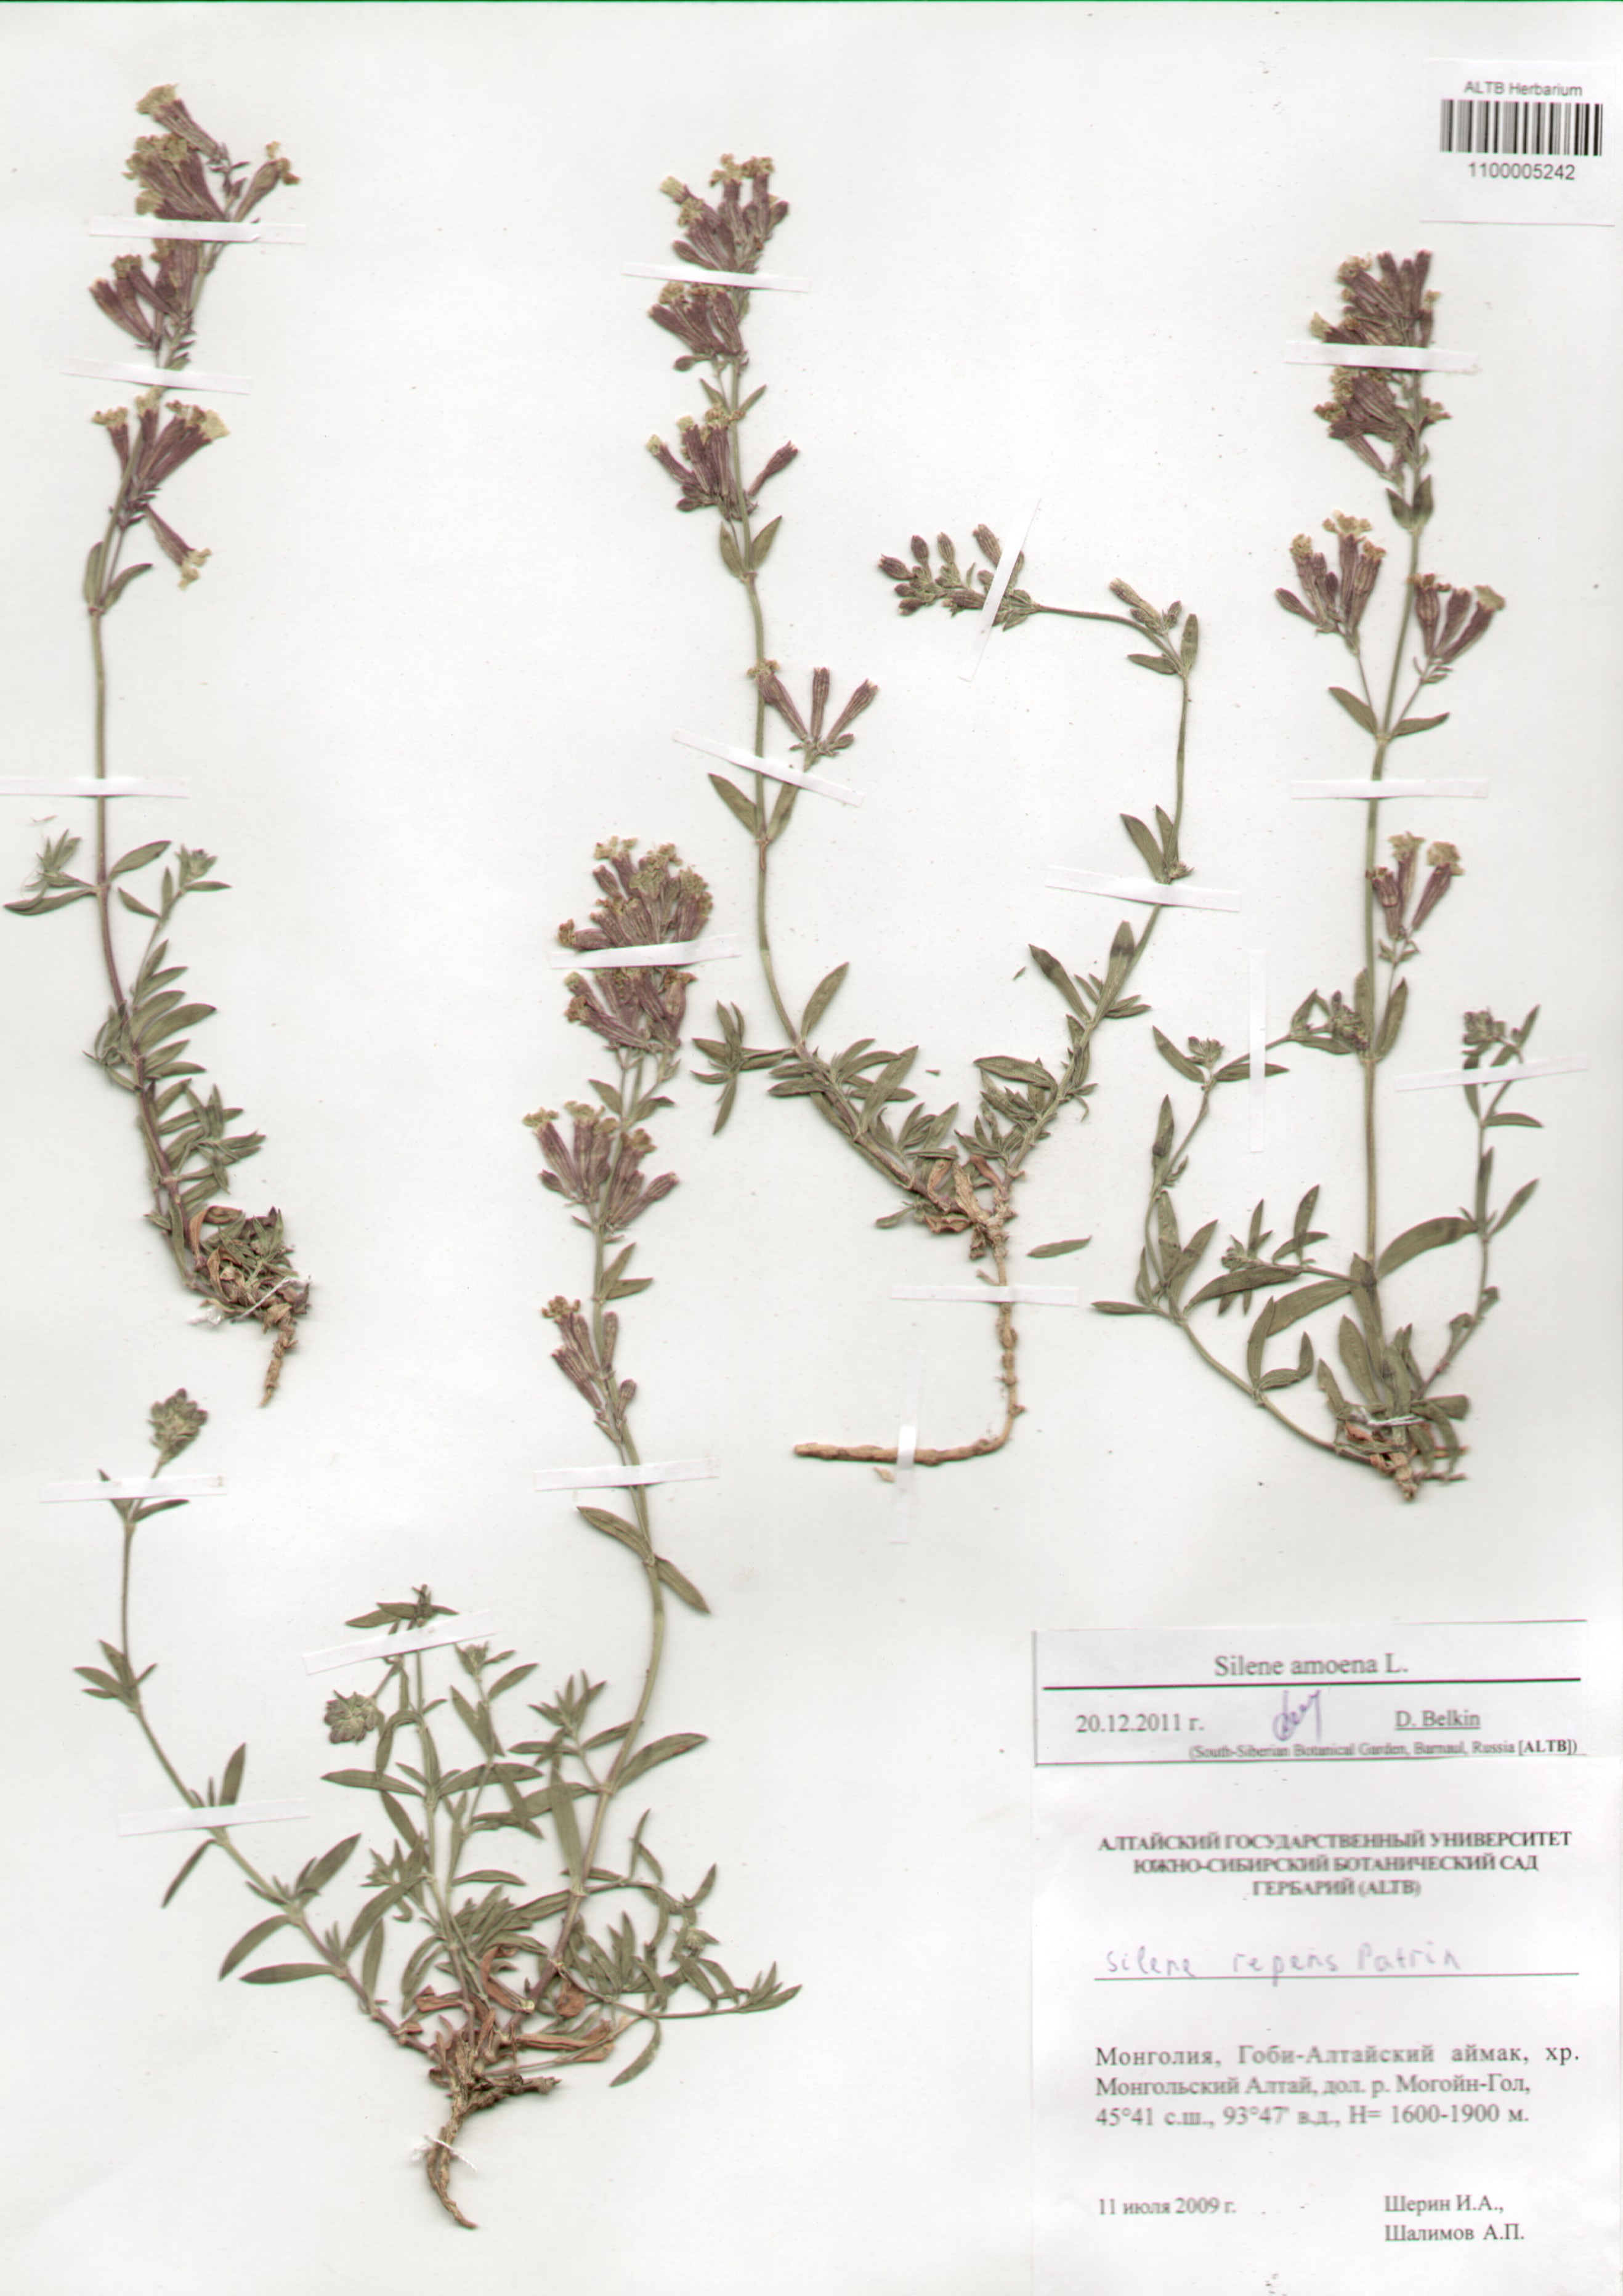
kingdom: Plantae
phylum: Tracheophyta
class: Magnoliopsida
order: Caryophyllales
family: Caryophyllaceae
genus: Silene
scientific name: Silene amoena
